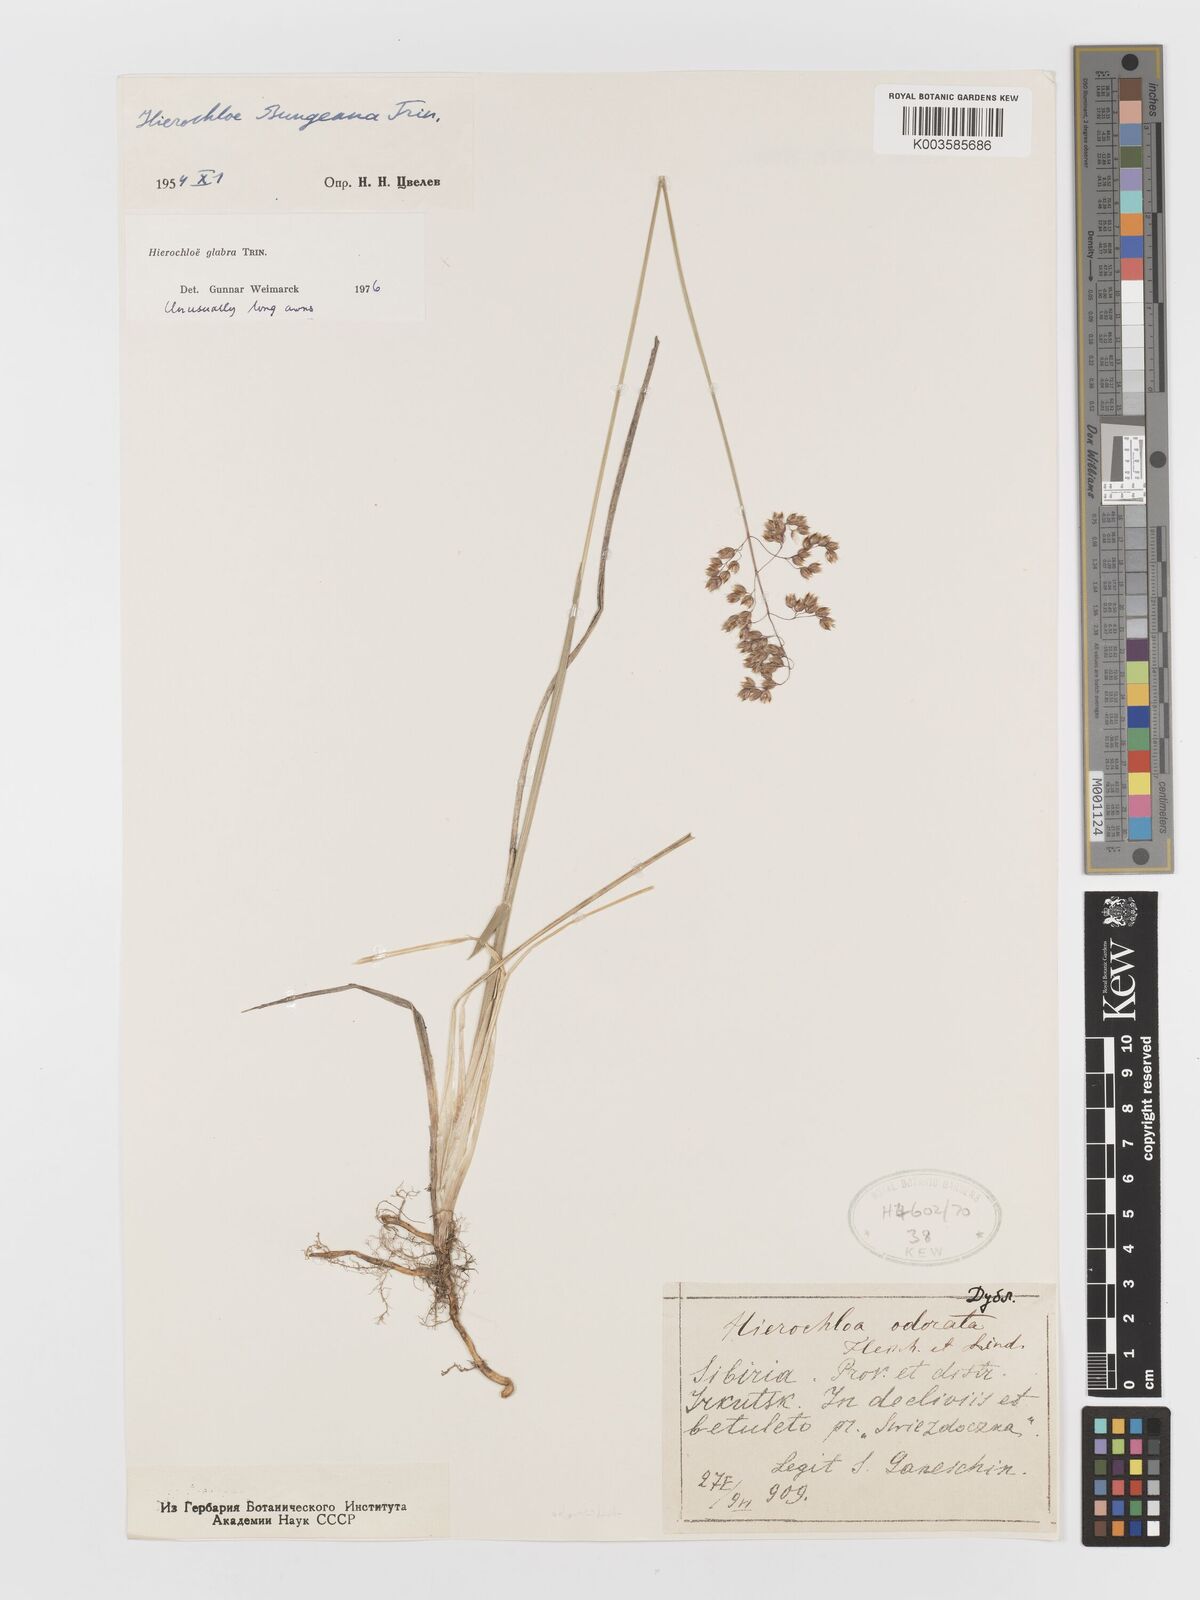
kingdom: Plantae
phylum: Tracheophyta
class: Liliopsida
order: Poales
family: Poaceae
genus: Anthoxanthum
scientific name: Anthoxanthum glabrum
